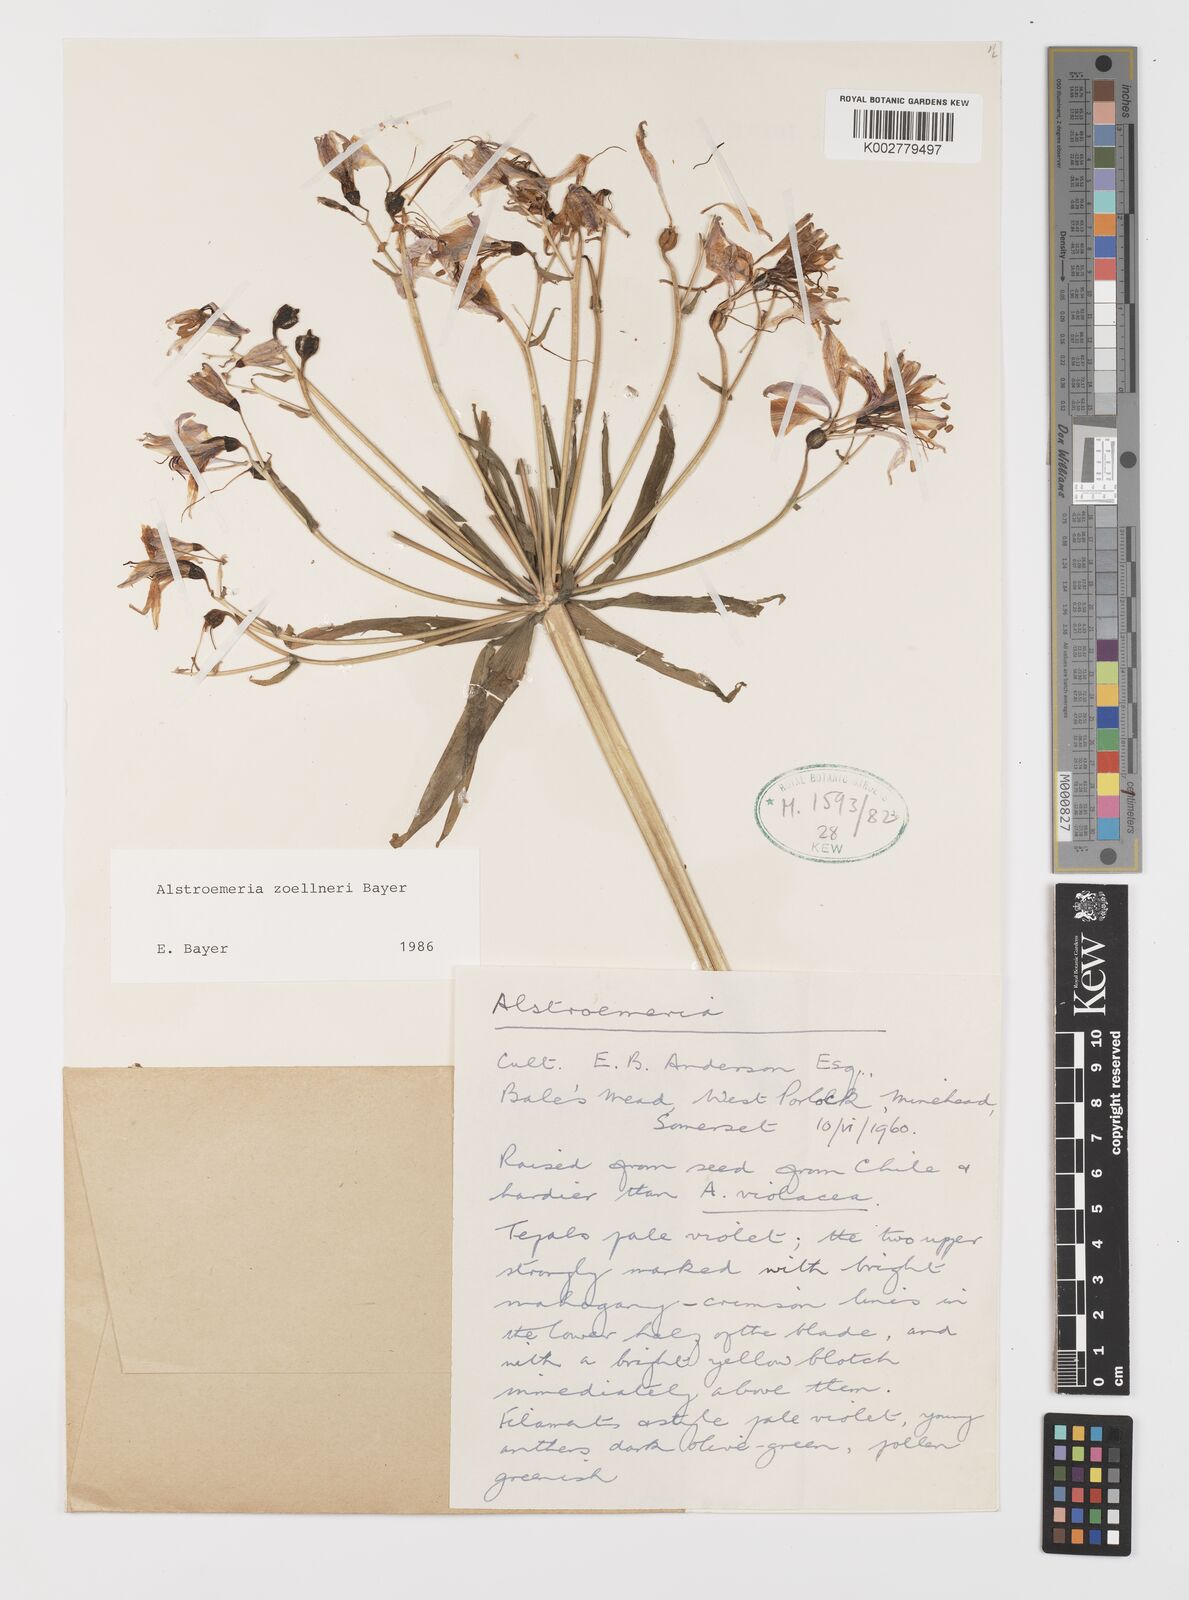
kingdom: Plantae
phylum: Tracheophyta
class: Liliopsida
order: Liliales
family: Alstroemeriaceae
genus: Alstroemeria
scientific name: Alstroemeria zoellneri
